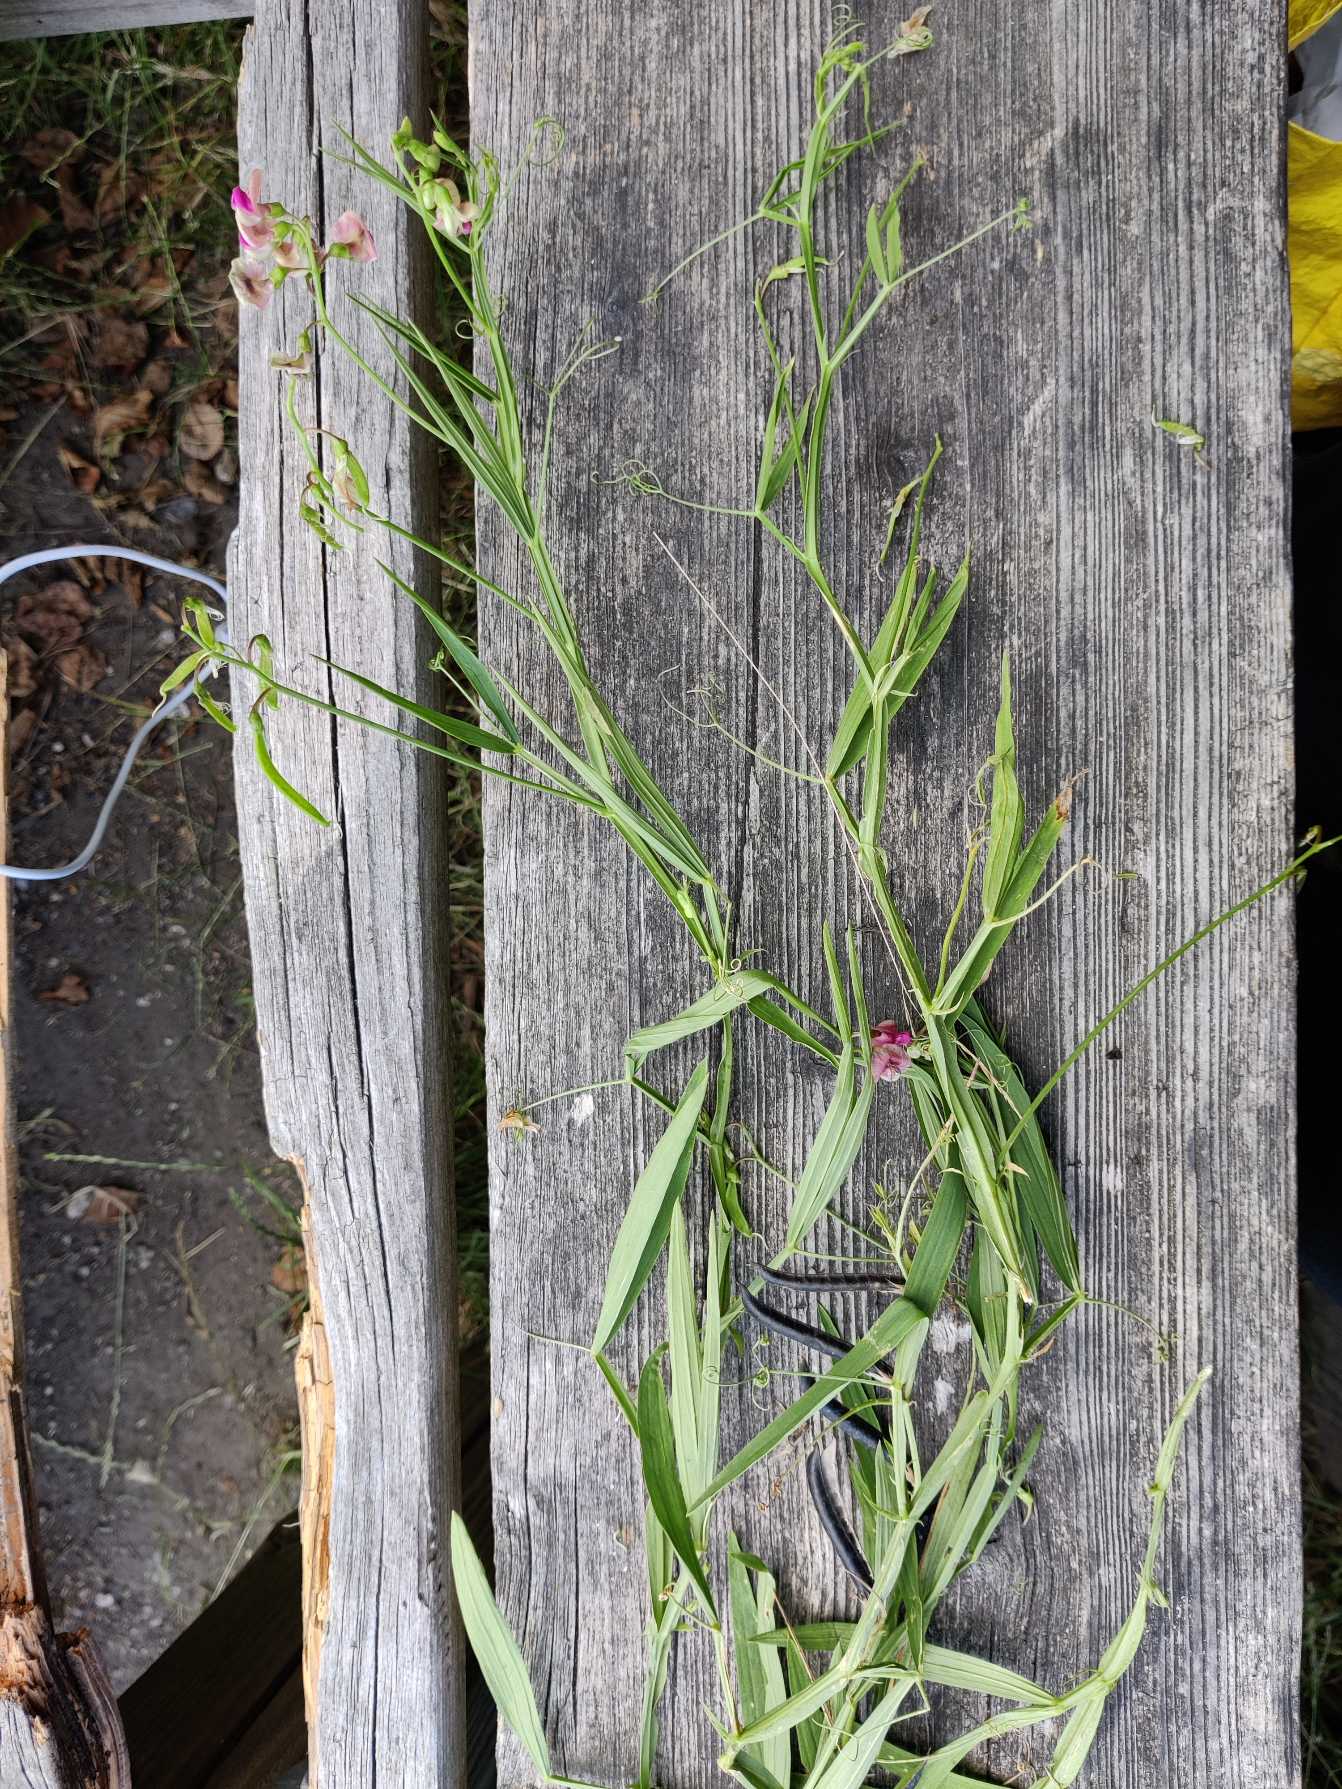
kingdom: Plantae
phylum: Tracheophyta
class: Magnoliopsida
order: Fabales
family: Fabaceae
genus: Lathyrus
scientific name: Lathyrus sylvestris
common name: Skov-fladbælg
